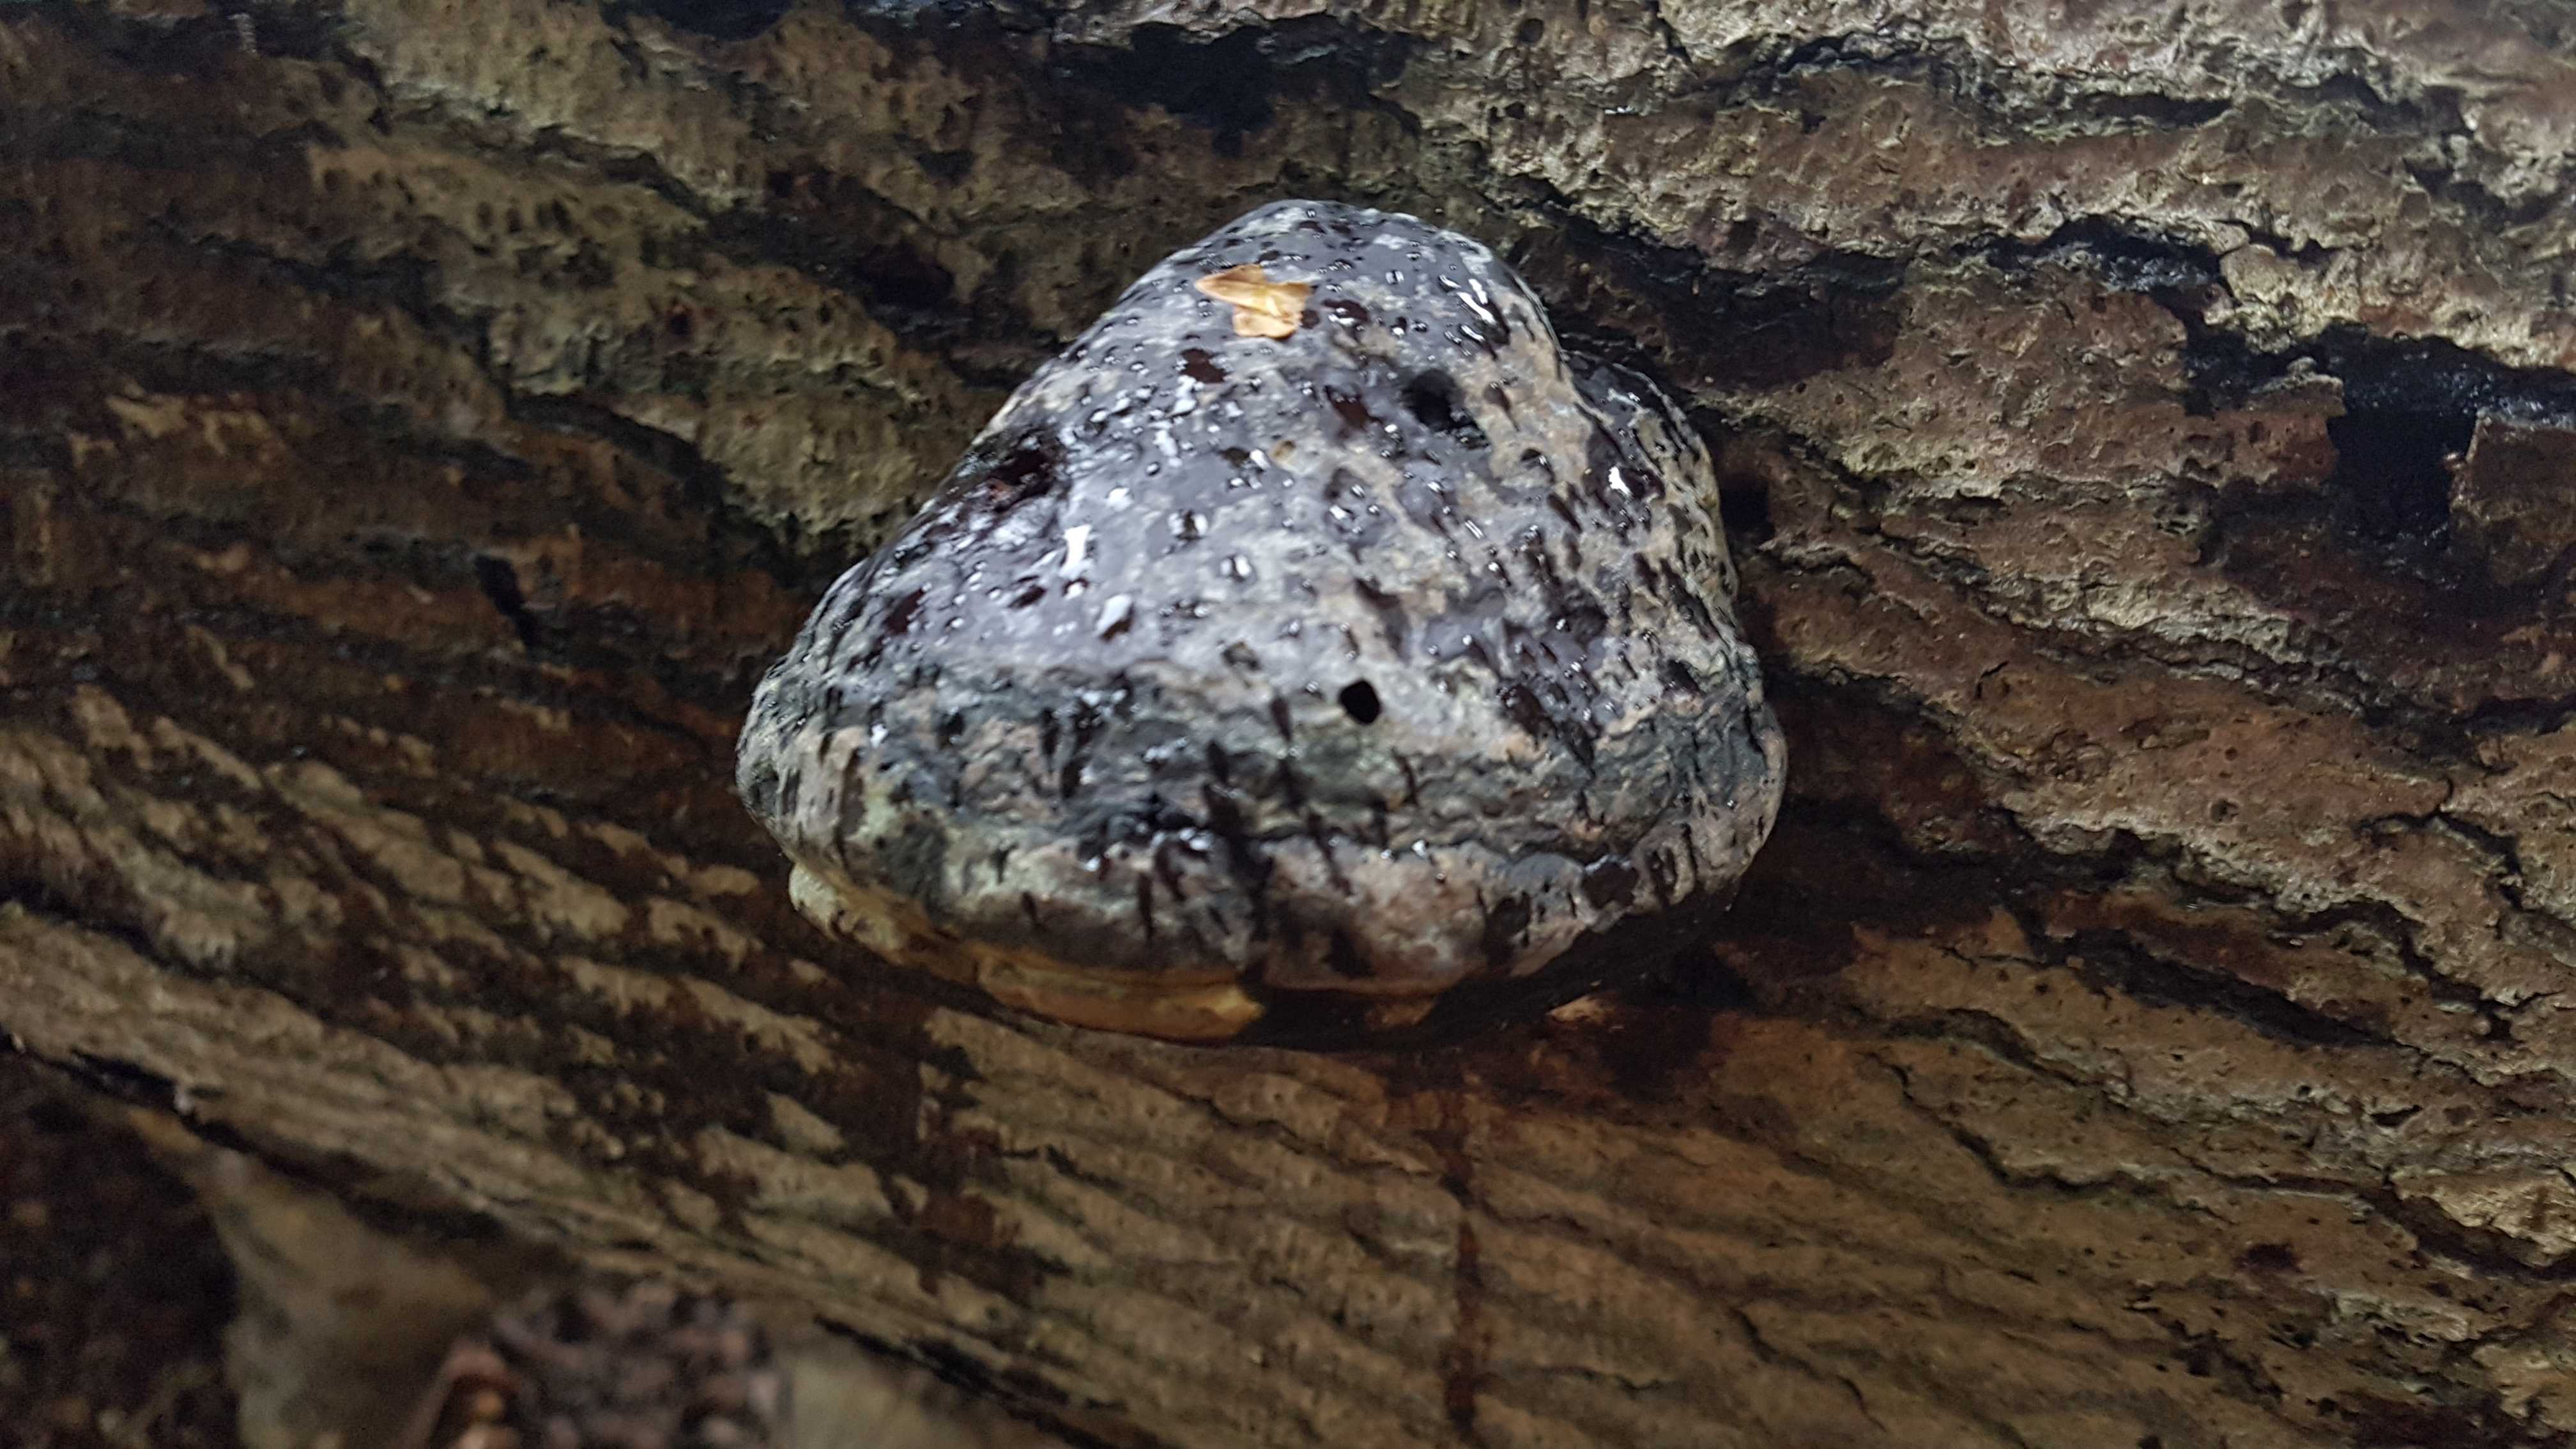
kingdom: Fungi
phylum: Basidiomycota
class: Agaricomycetes
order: Polyporales
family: Polyporaceae
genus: Fomes
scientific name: Fomes fomentarius
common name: tøndersvamp
